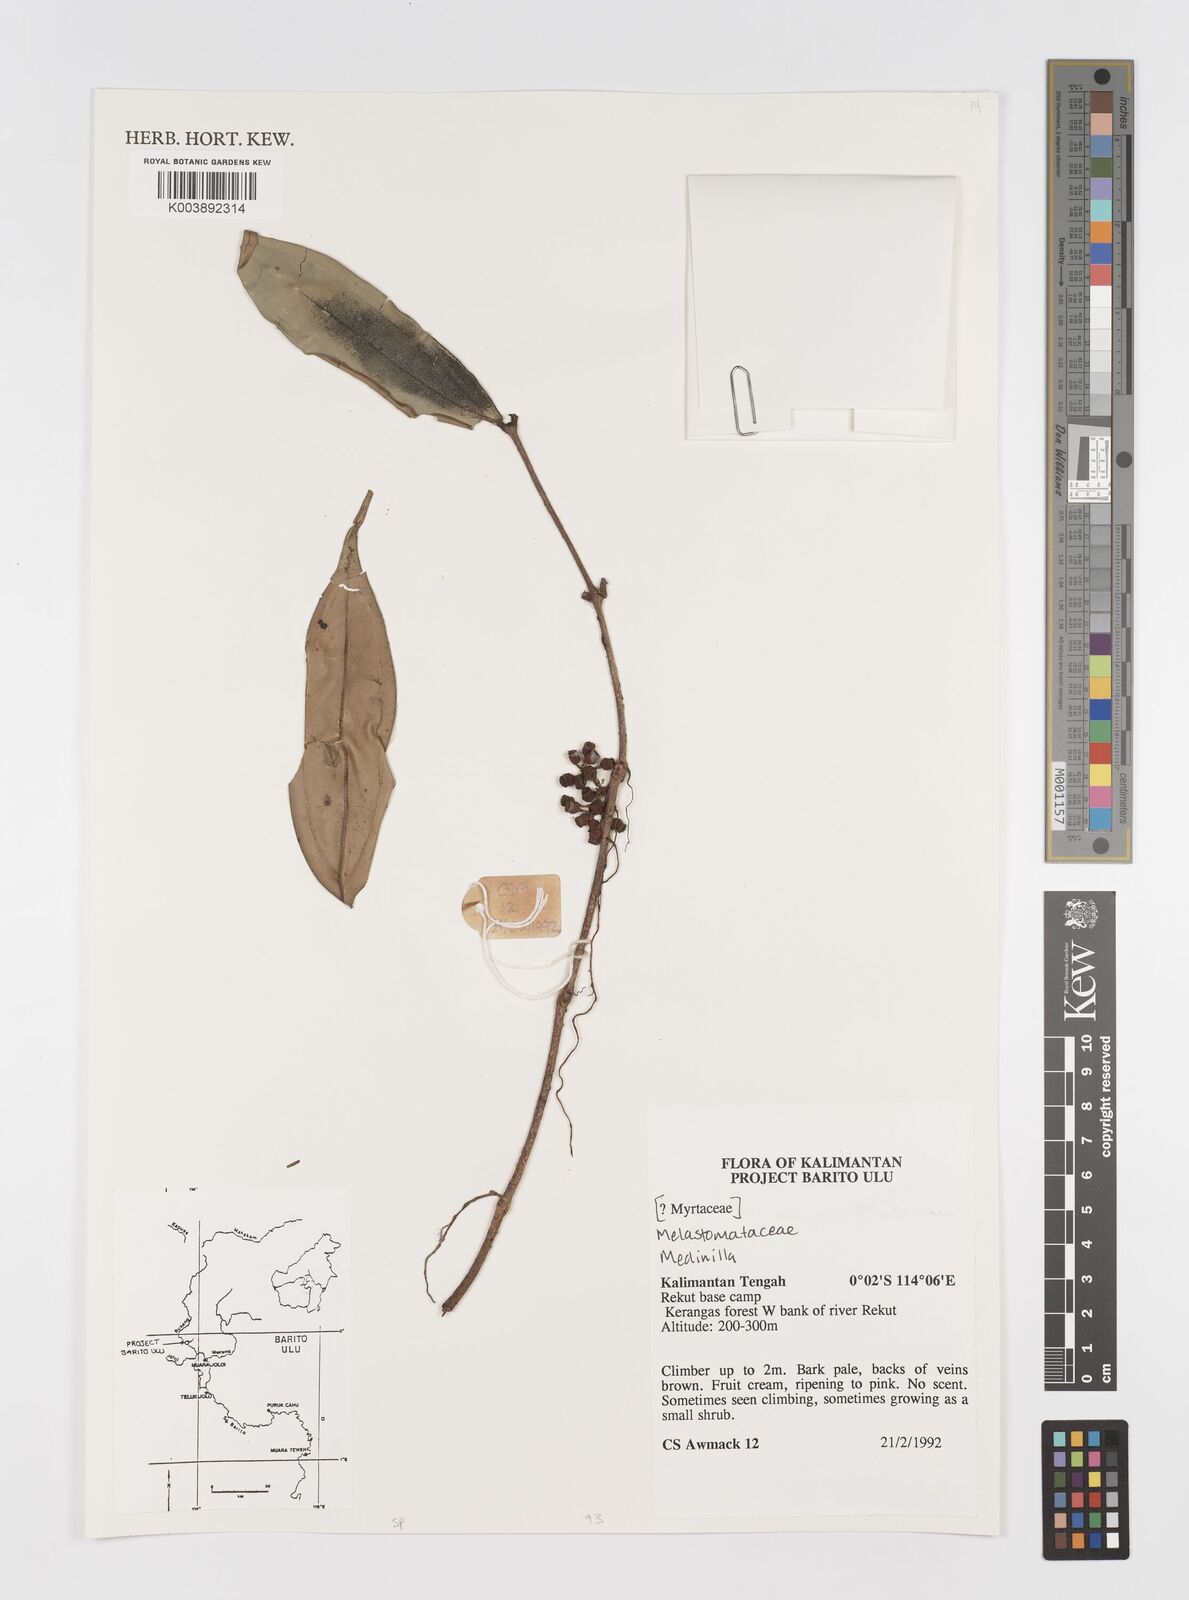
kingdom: Plantae
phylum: Tracheophyta
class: Magnoliopsida
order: Myrtales
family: Melastomataceae
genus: Medinilla
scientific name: Medinilla
